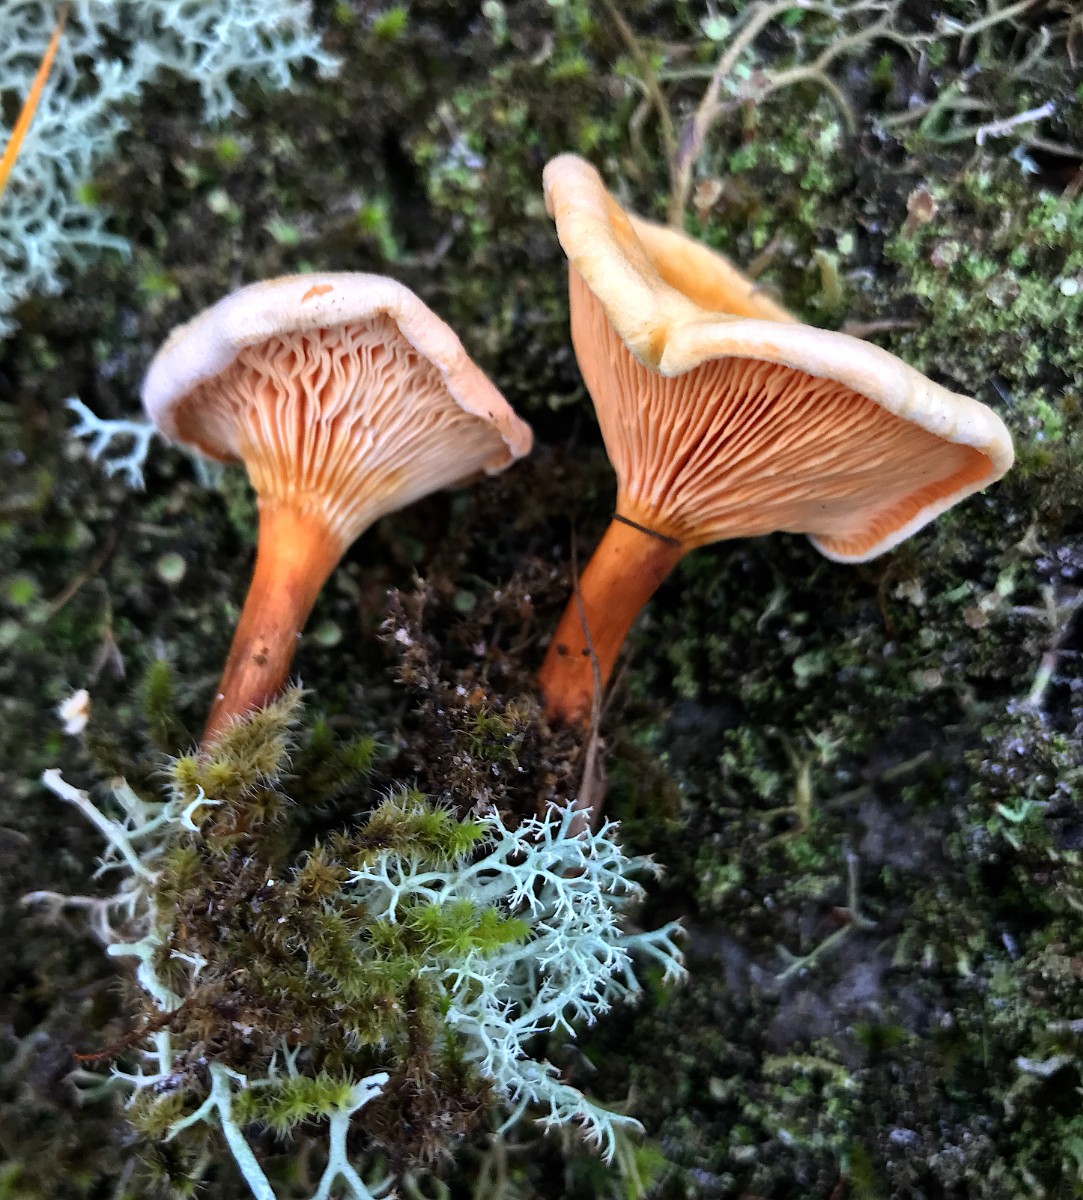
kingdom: Fungi
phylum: Basidiomycota
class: Agaricomycetes
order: Boletales
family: Hygrophoropsidaceae
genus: Hygrophoropsis
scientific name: Hygrophoropsis aurantiaca
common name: almindelig orangekantarel
